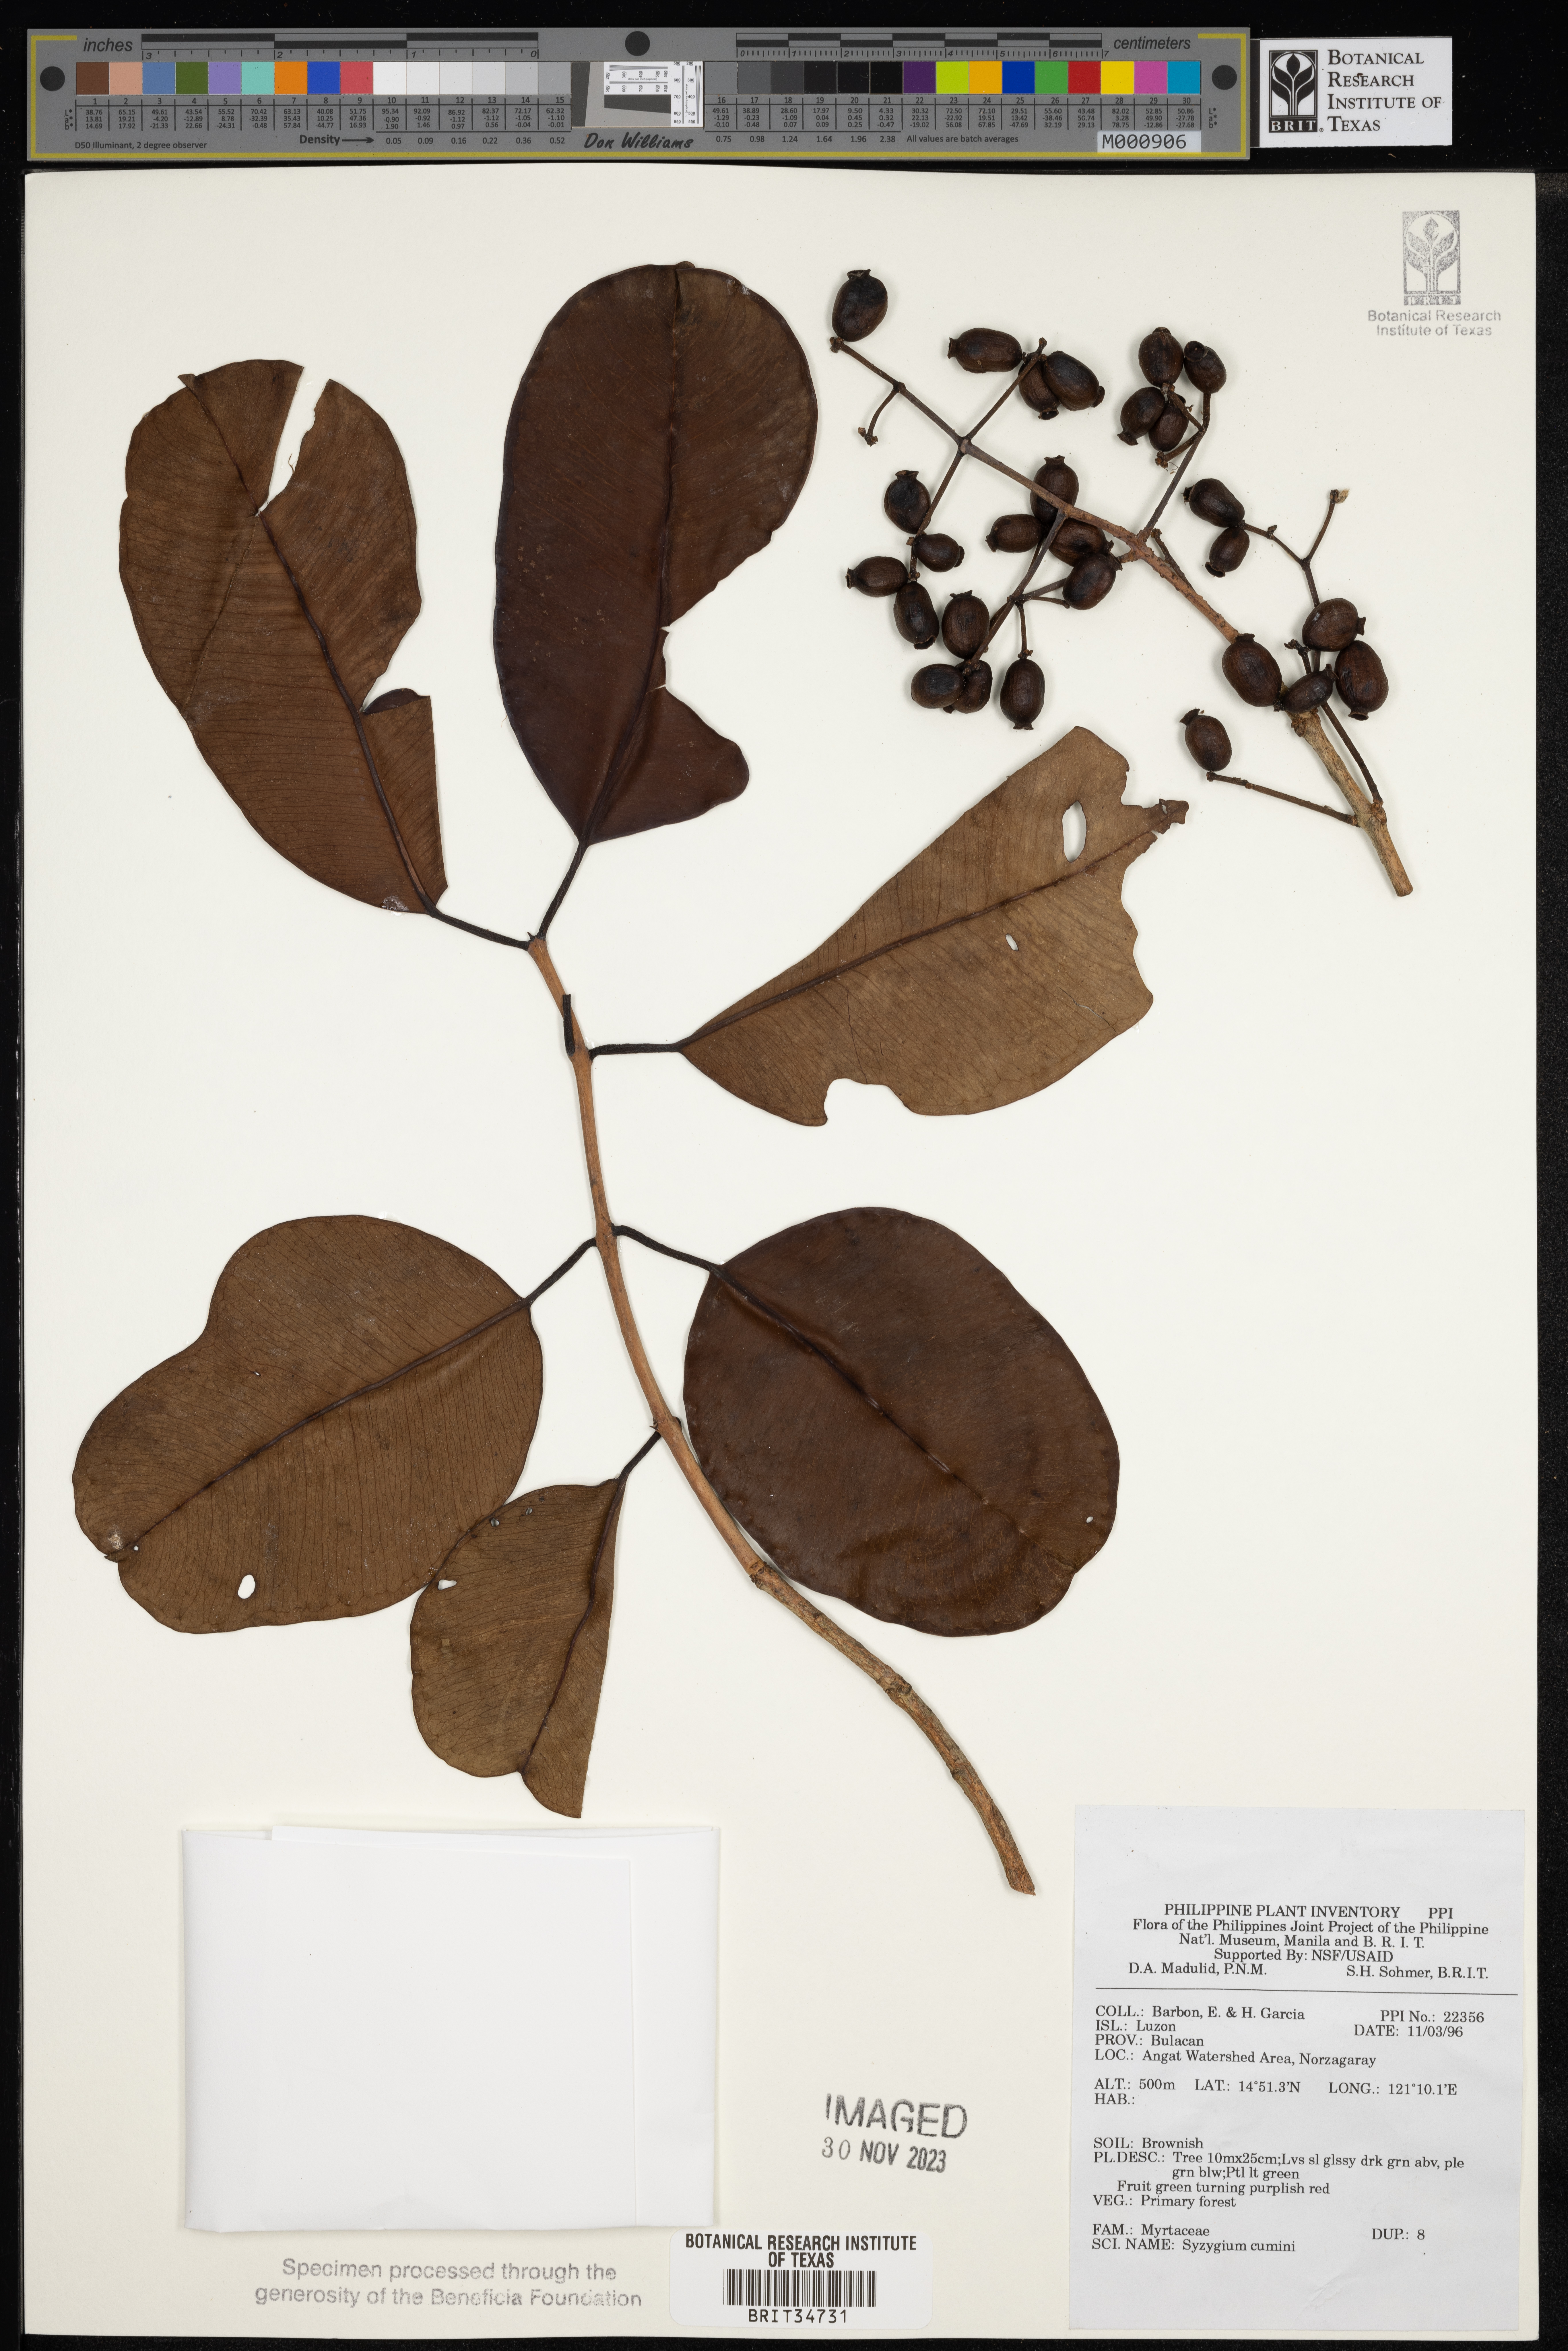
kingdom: Plantae
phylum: Tracheophyta
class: Magnoliopsida
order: Myrtales
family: Myrtaceae
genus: Syzygium
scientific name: Syzygium cumini
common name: Java plum
